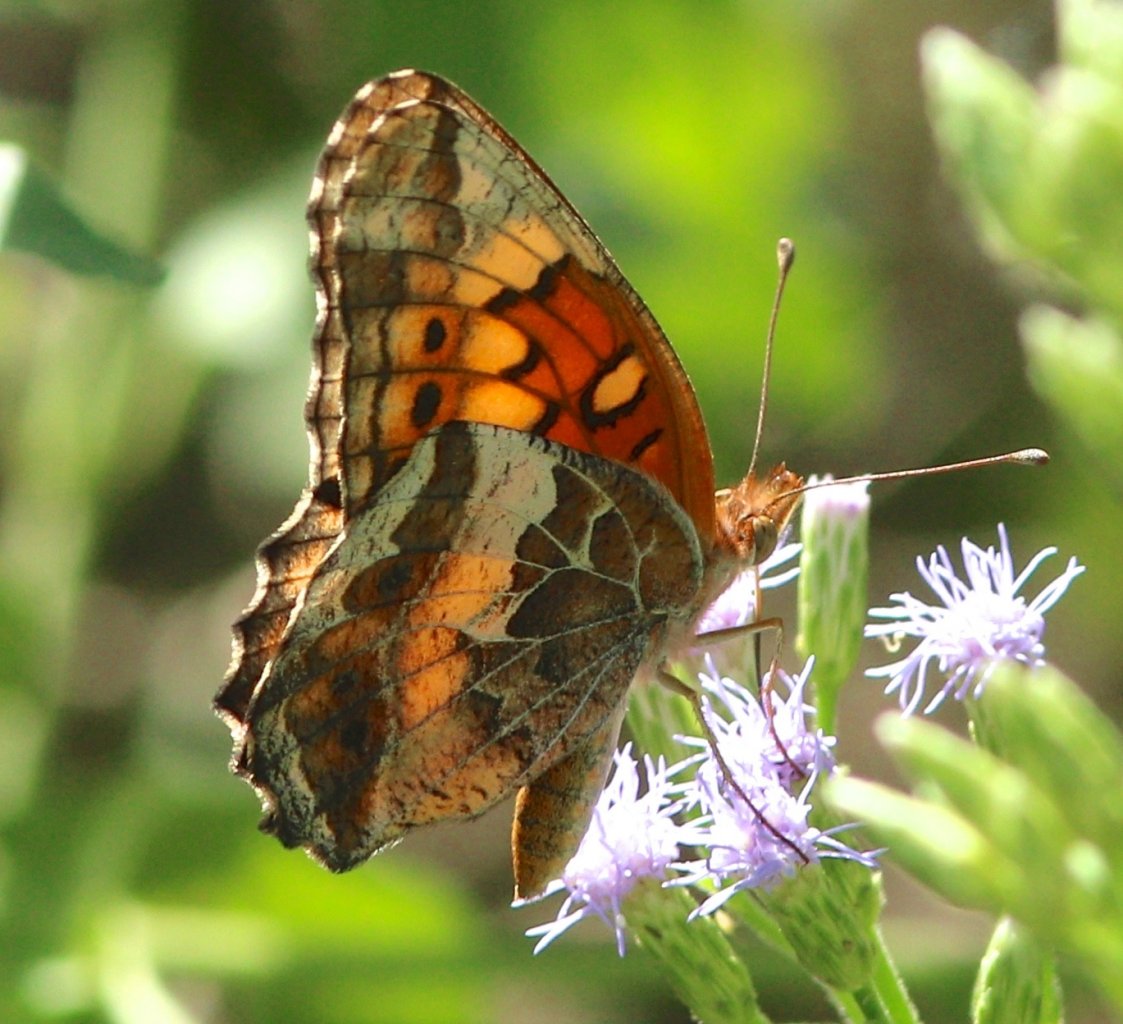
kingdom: Animalia
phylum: Arthropoda
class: Insecta
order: Lepidoptera
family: Nymphalidae
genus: Euptoieta
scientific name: Euptoieta claudia
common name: Variegated Fritillary
